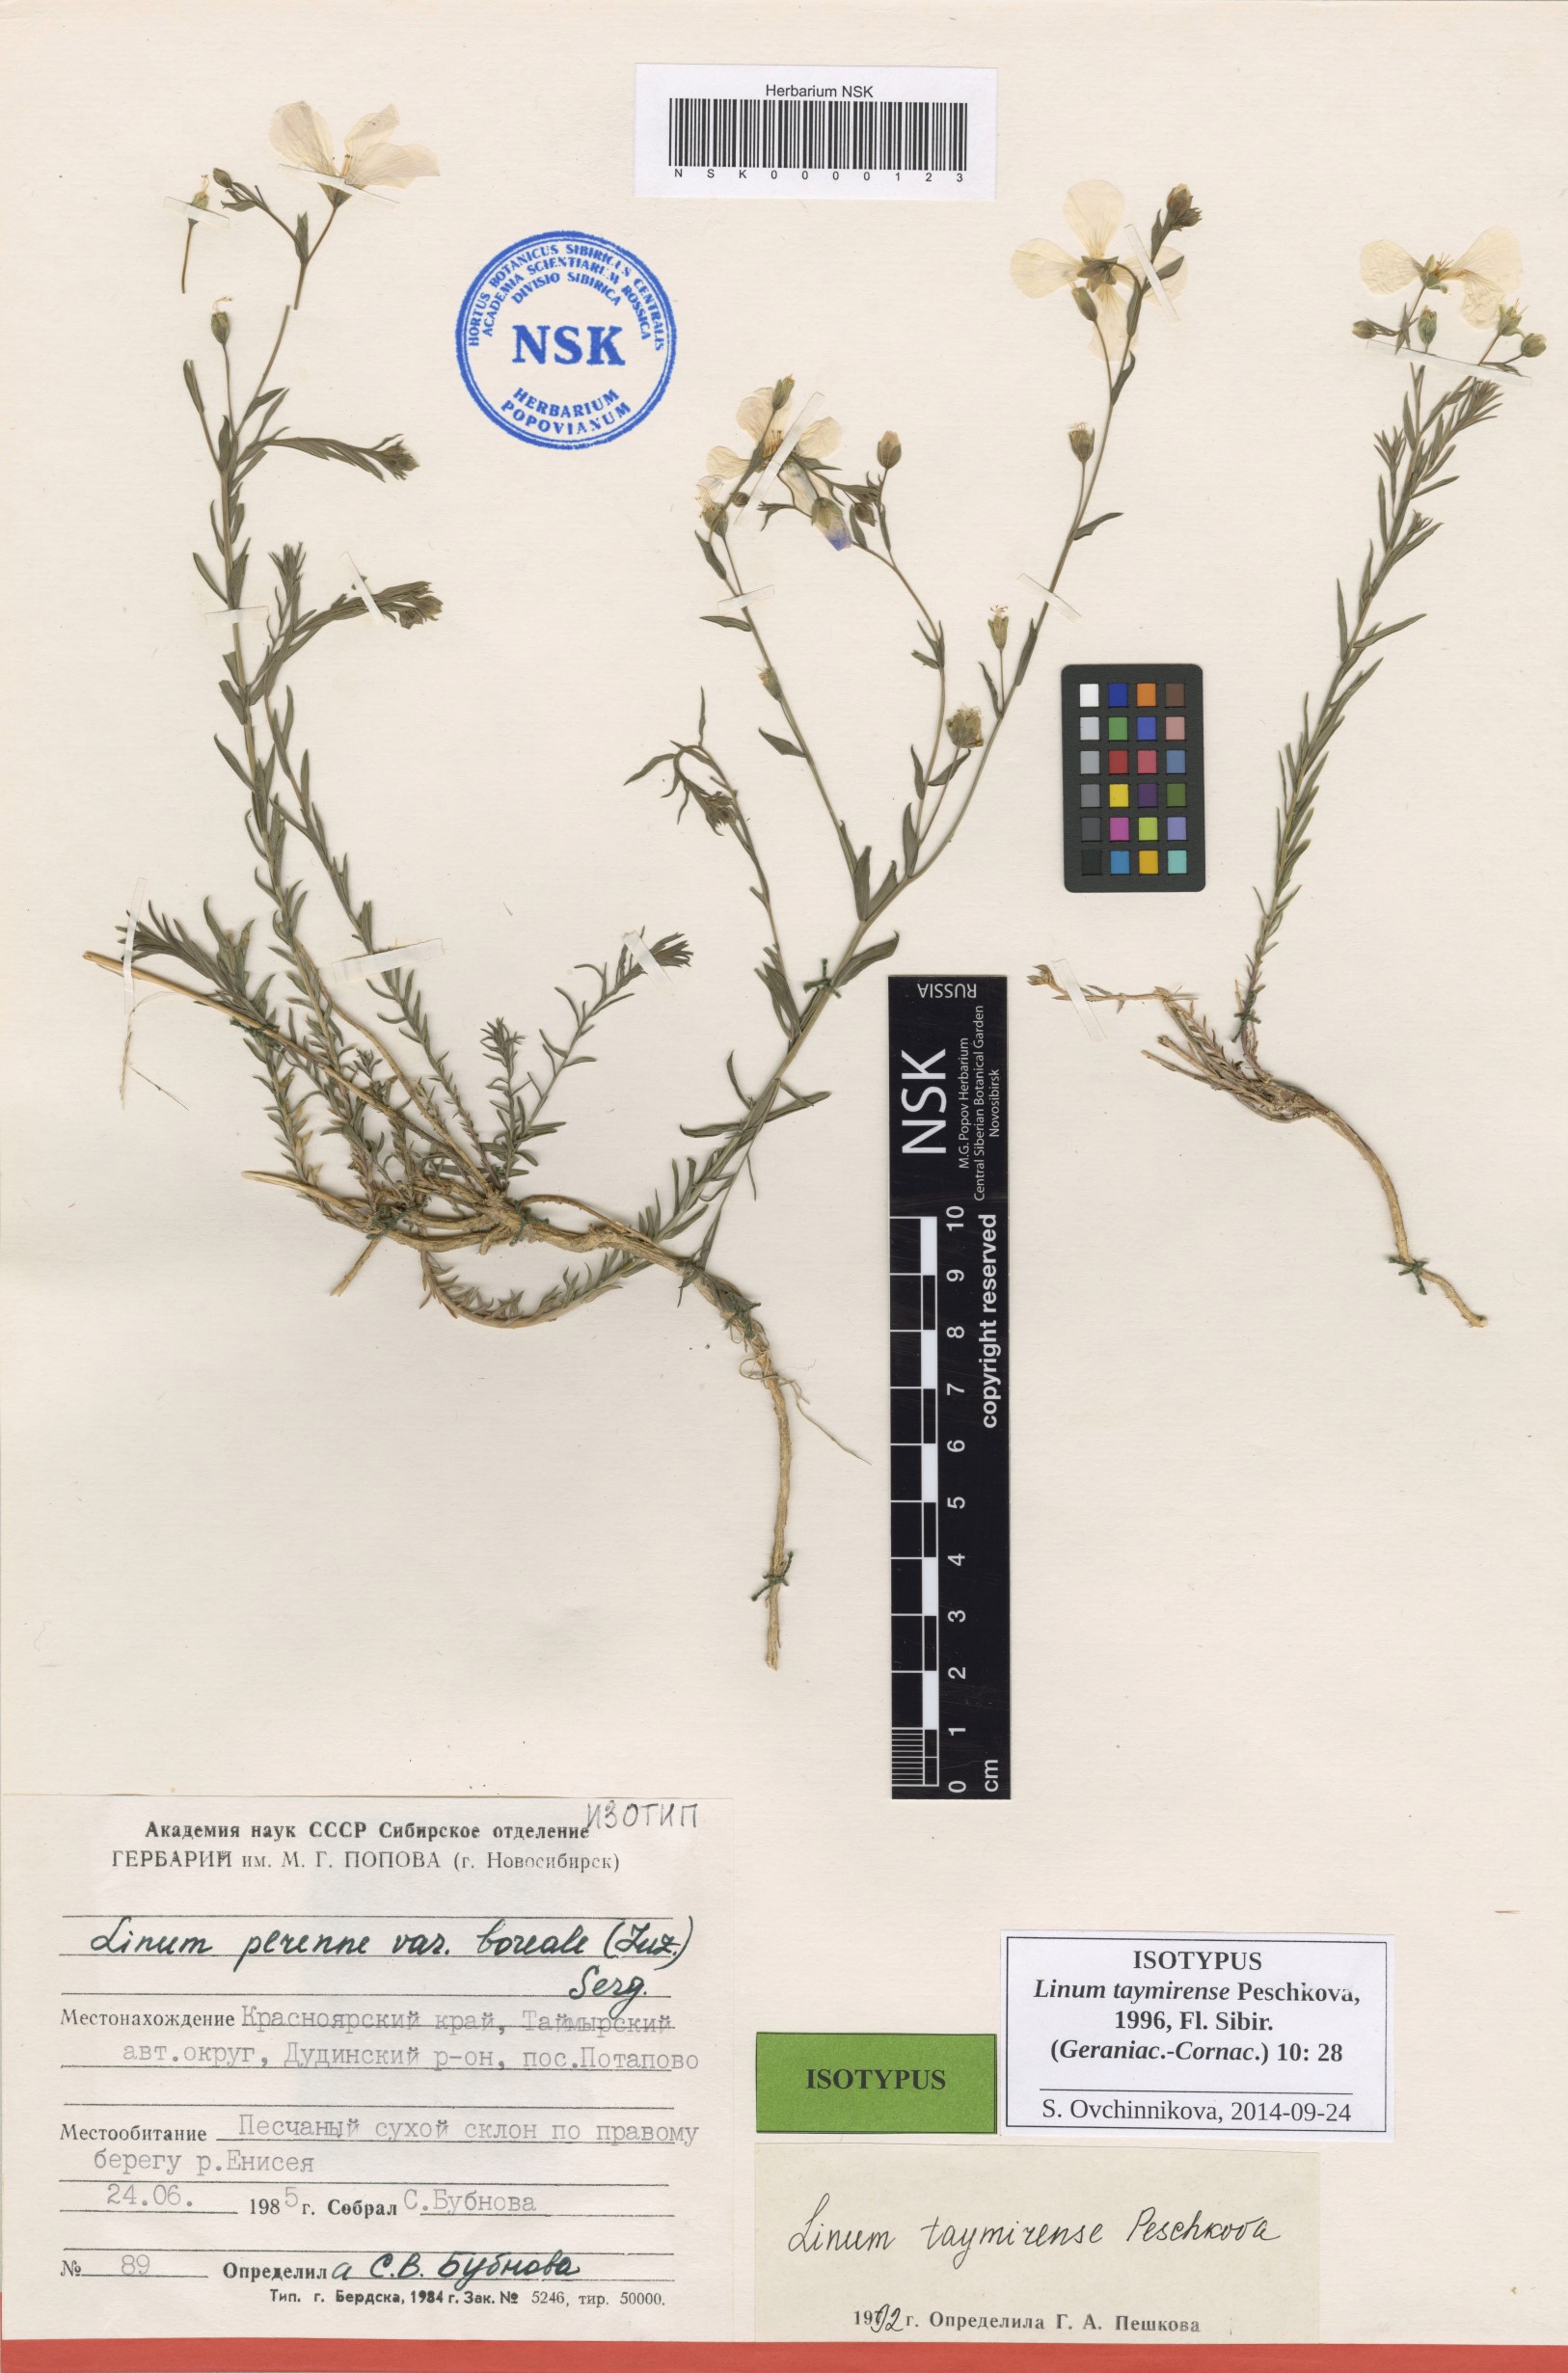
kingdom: Plantae
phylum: Tracheophyta
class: Magnoliopsida
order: Malpighiales
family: Linaceae
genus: Linum
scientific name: Linum komarovii
